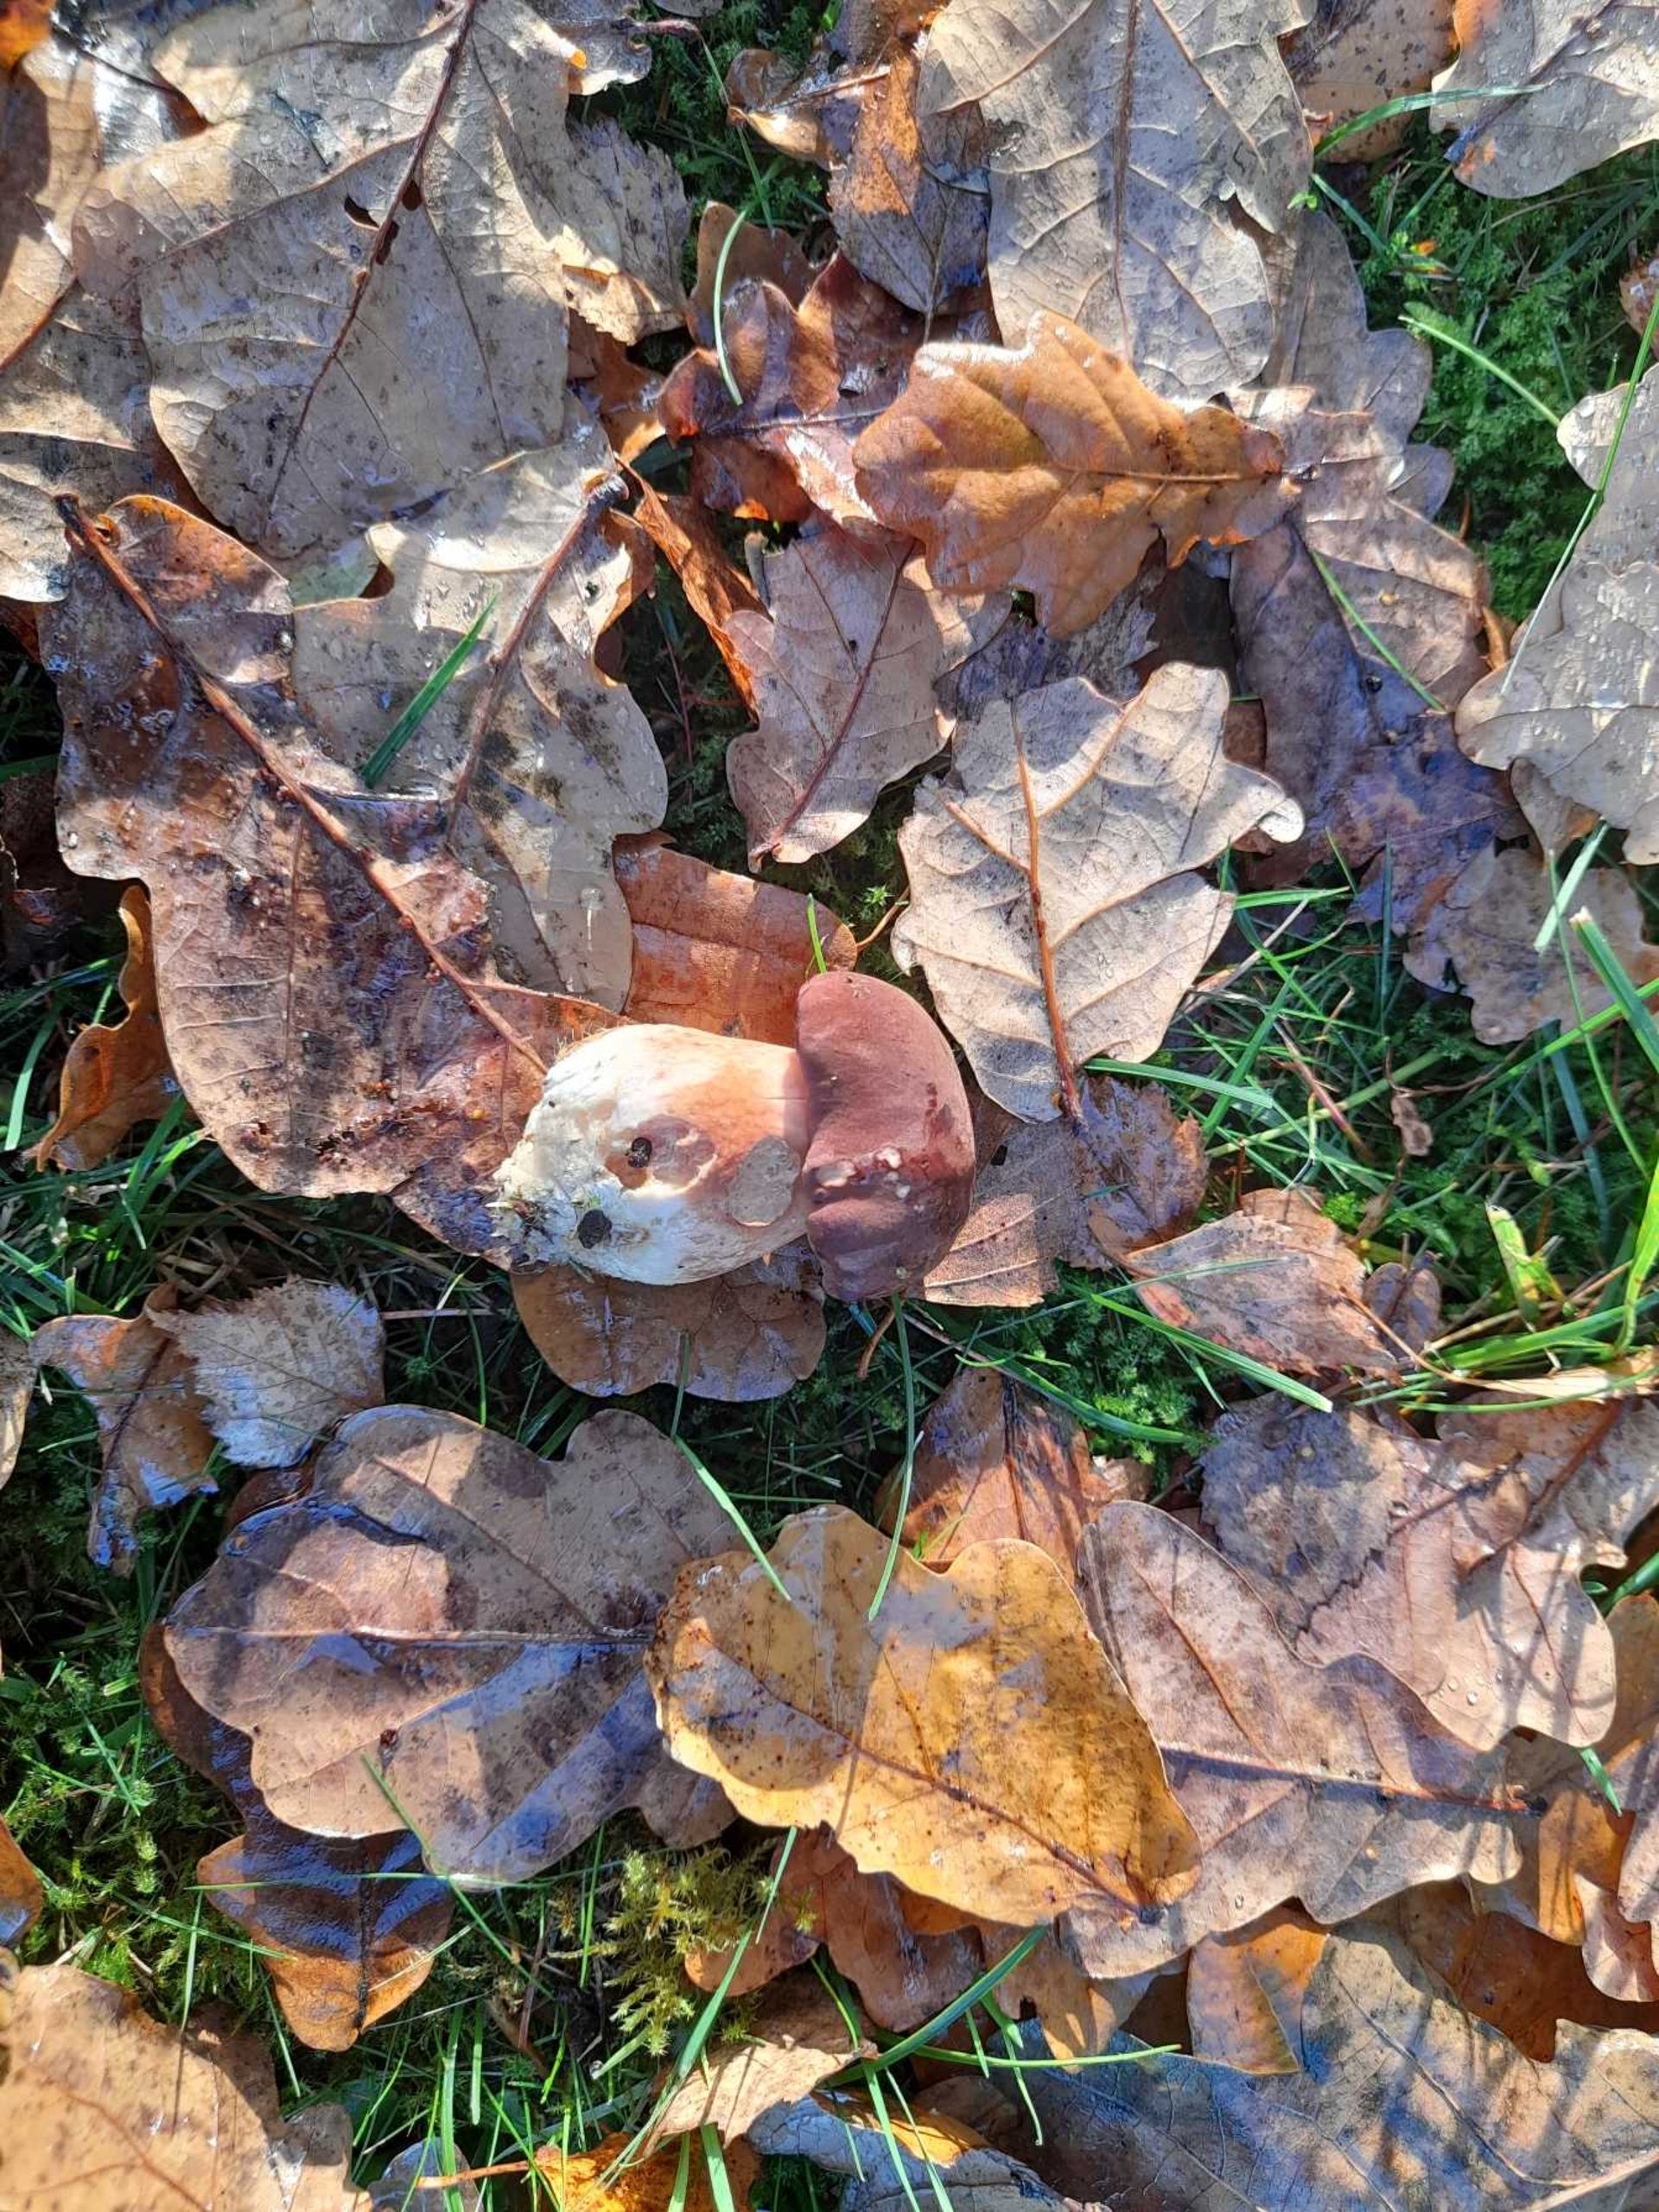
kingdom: Fungi
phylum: Basidiomycota
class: Agaricomycetes
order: Boletales
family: Boletaceae
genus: Boletus
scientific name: Boletus edulis
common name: Spiselig rørhat/karl johan
